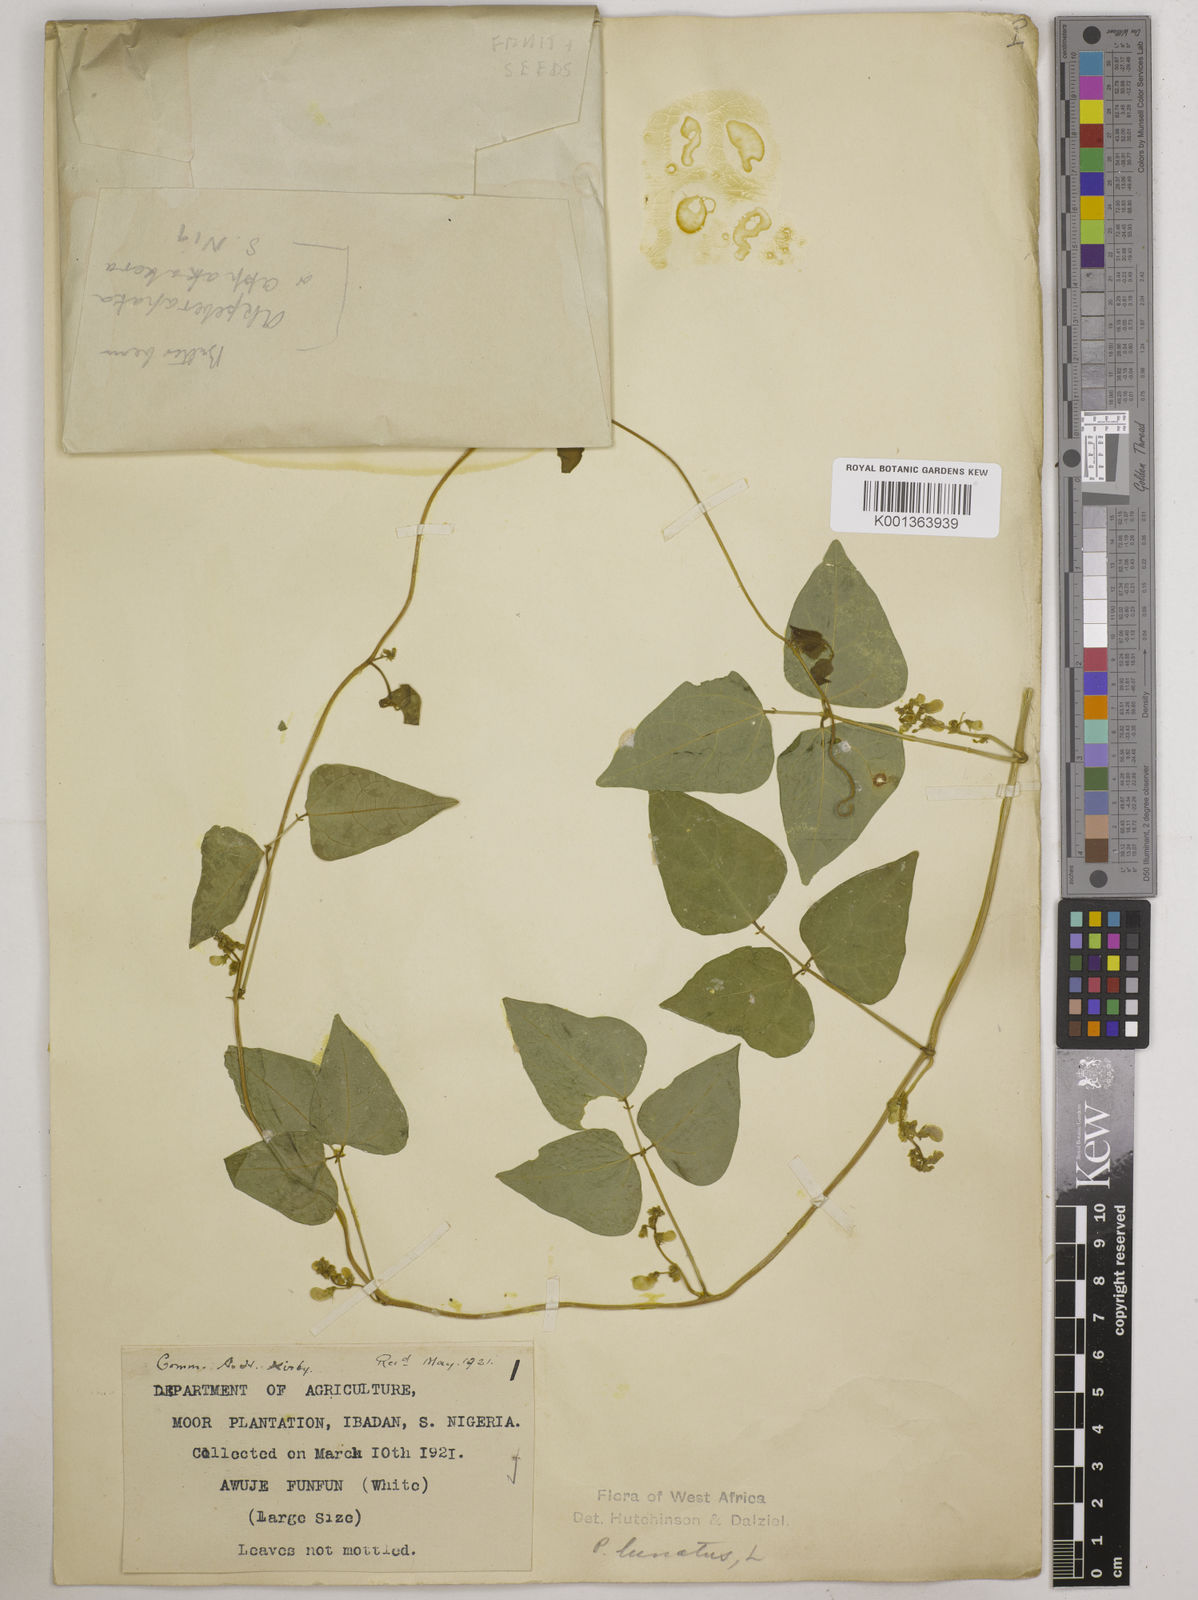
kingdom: Plantae
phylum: Tracheophyta
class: Magnoliopsida
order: Fabales
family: Fabaceae
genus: Phaseolus
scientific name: Phaseolus lunatus
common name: Sieva bean
